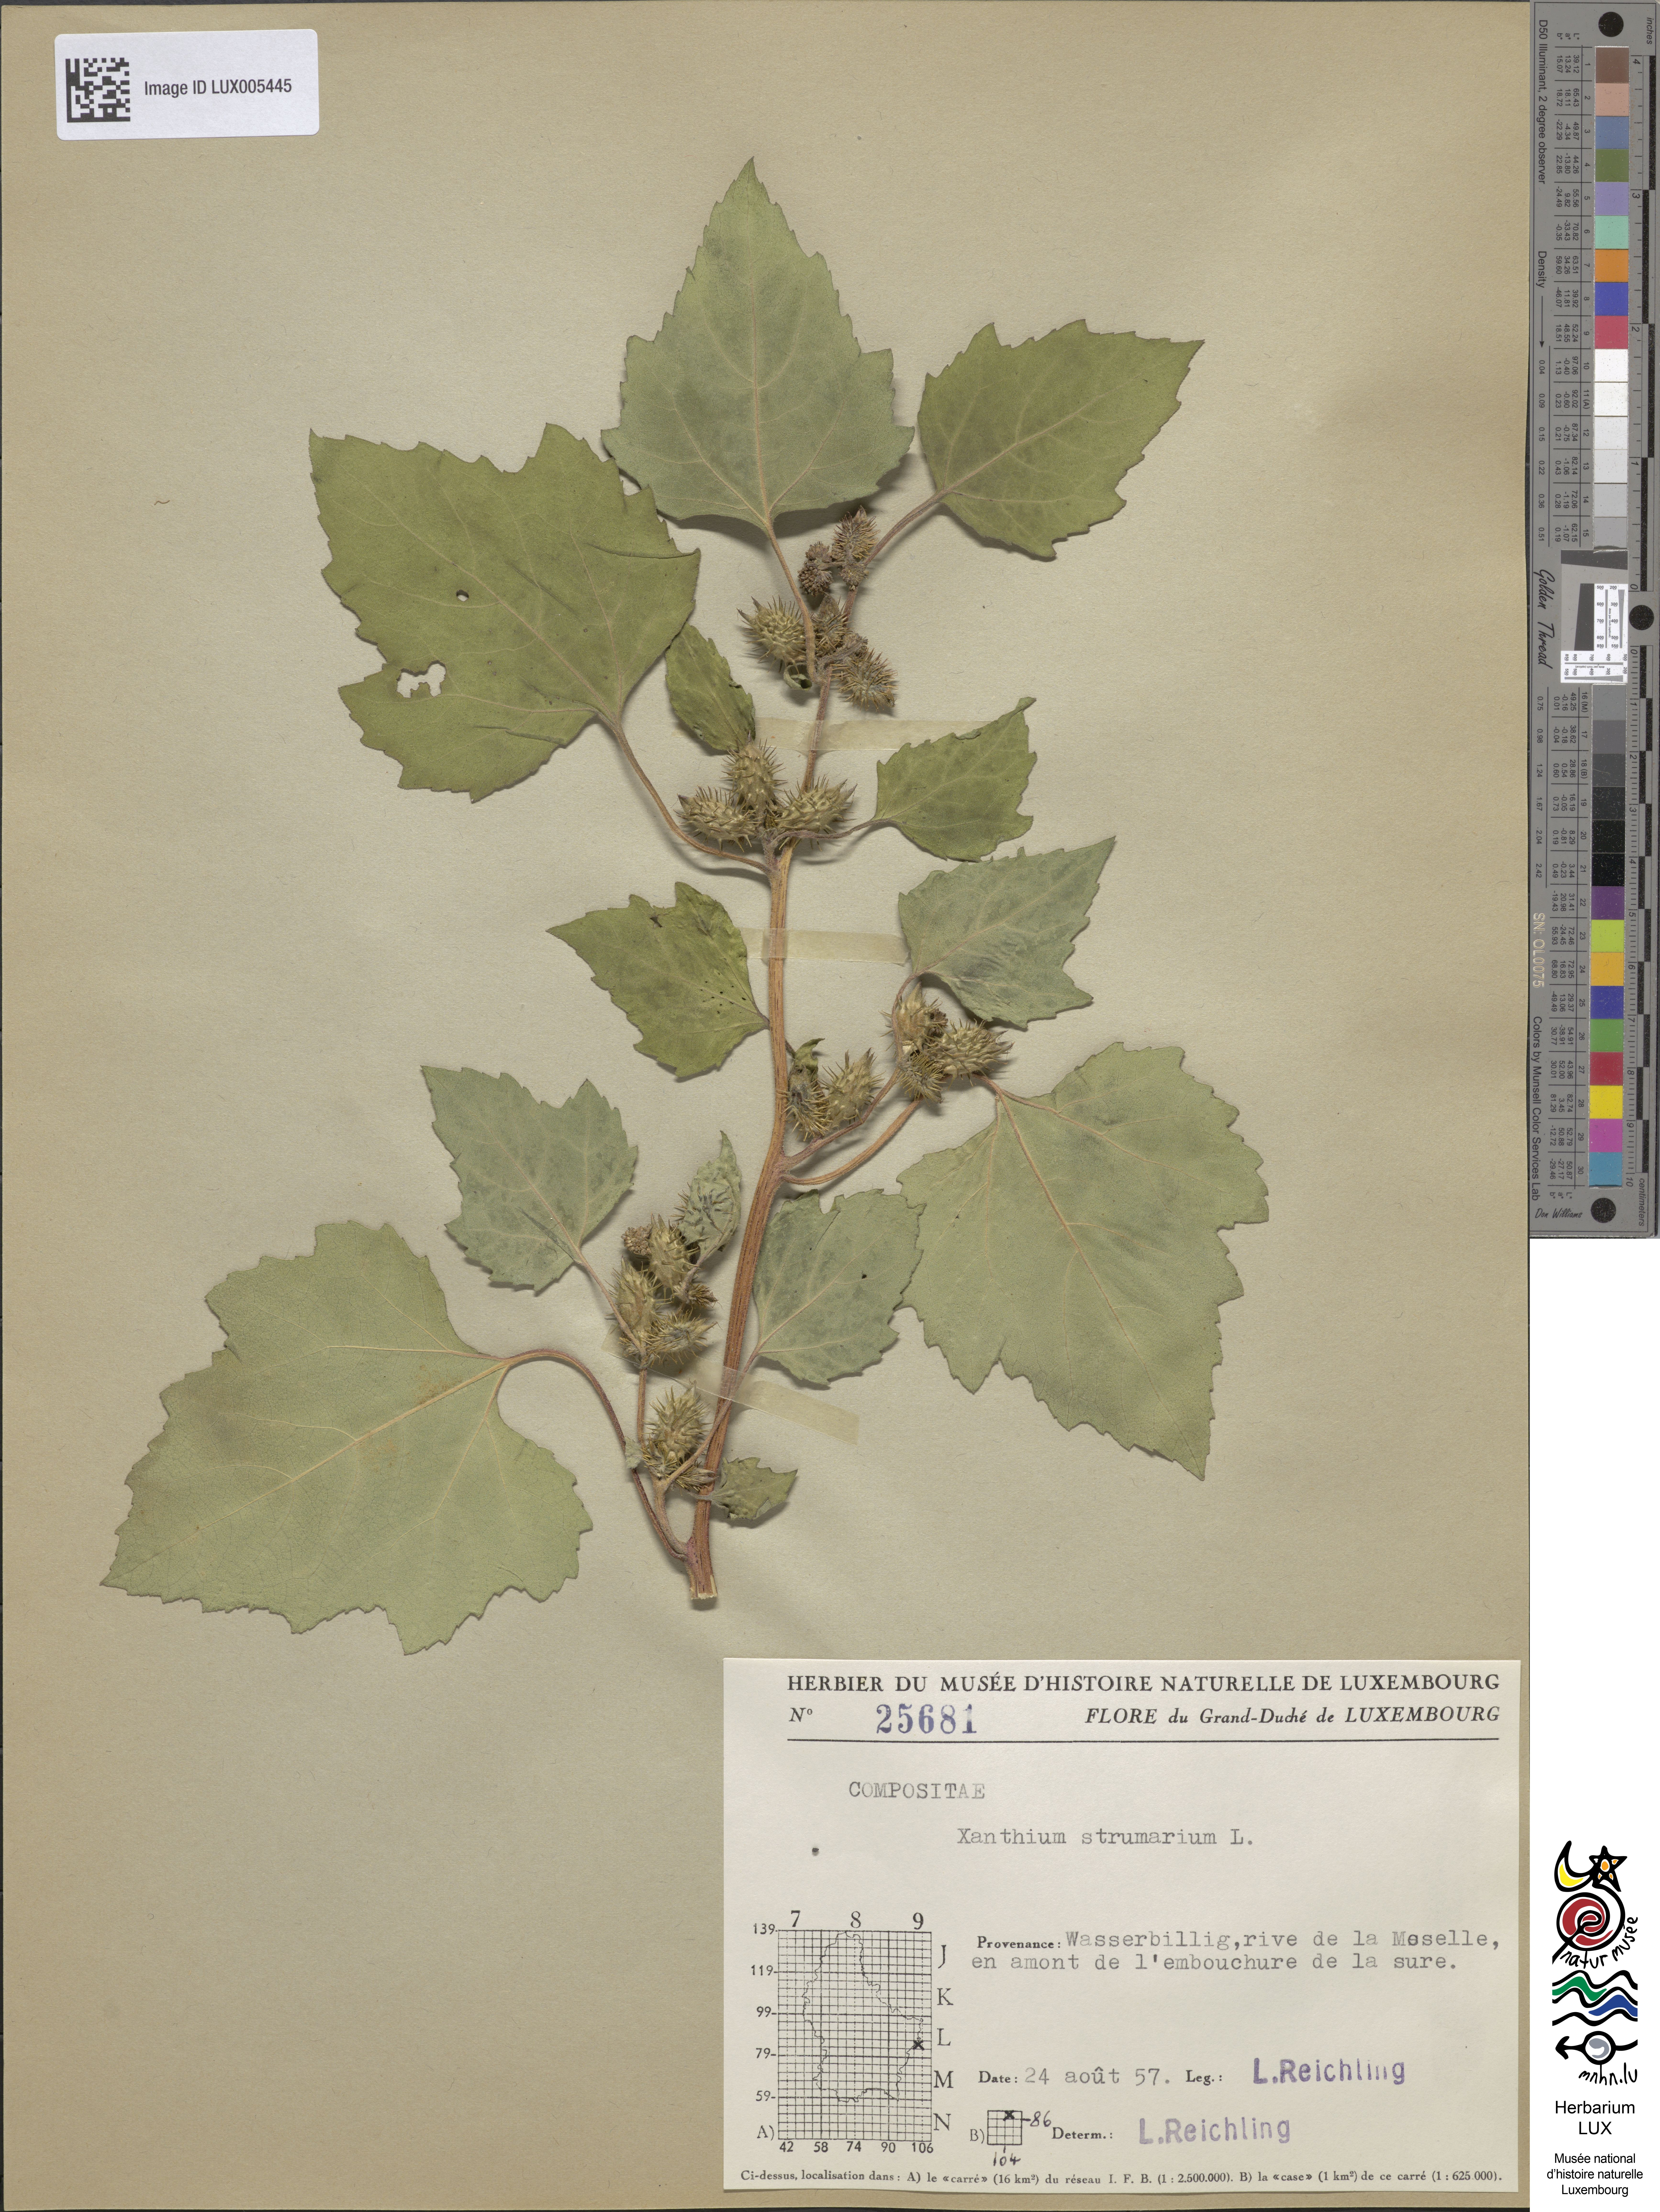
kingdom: Plantae
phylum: Tracheophyta
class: Magnoliopsida
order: Asterales
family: Asteraceae
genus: Xanthium
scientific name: Xanthium strumarium
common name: Rough cocklebur
